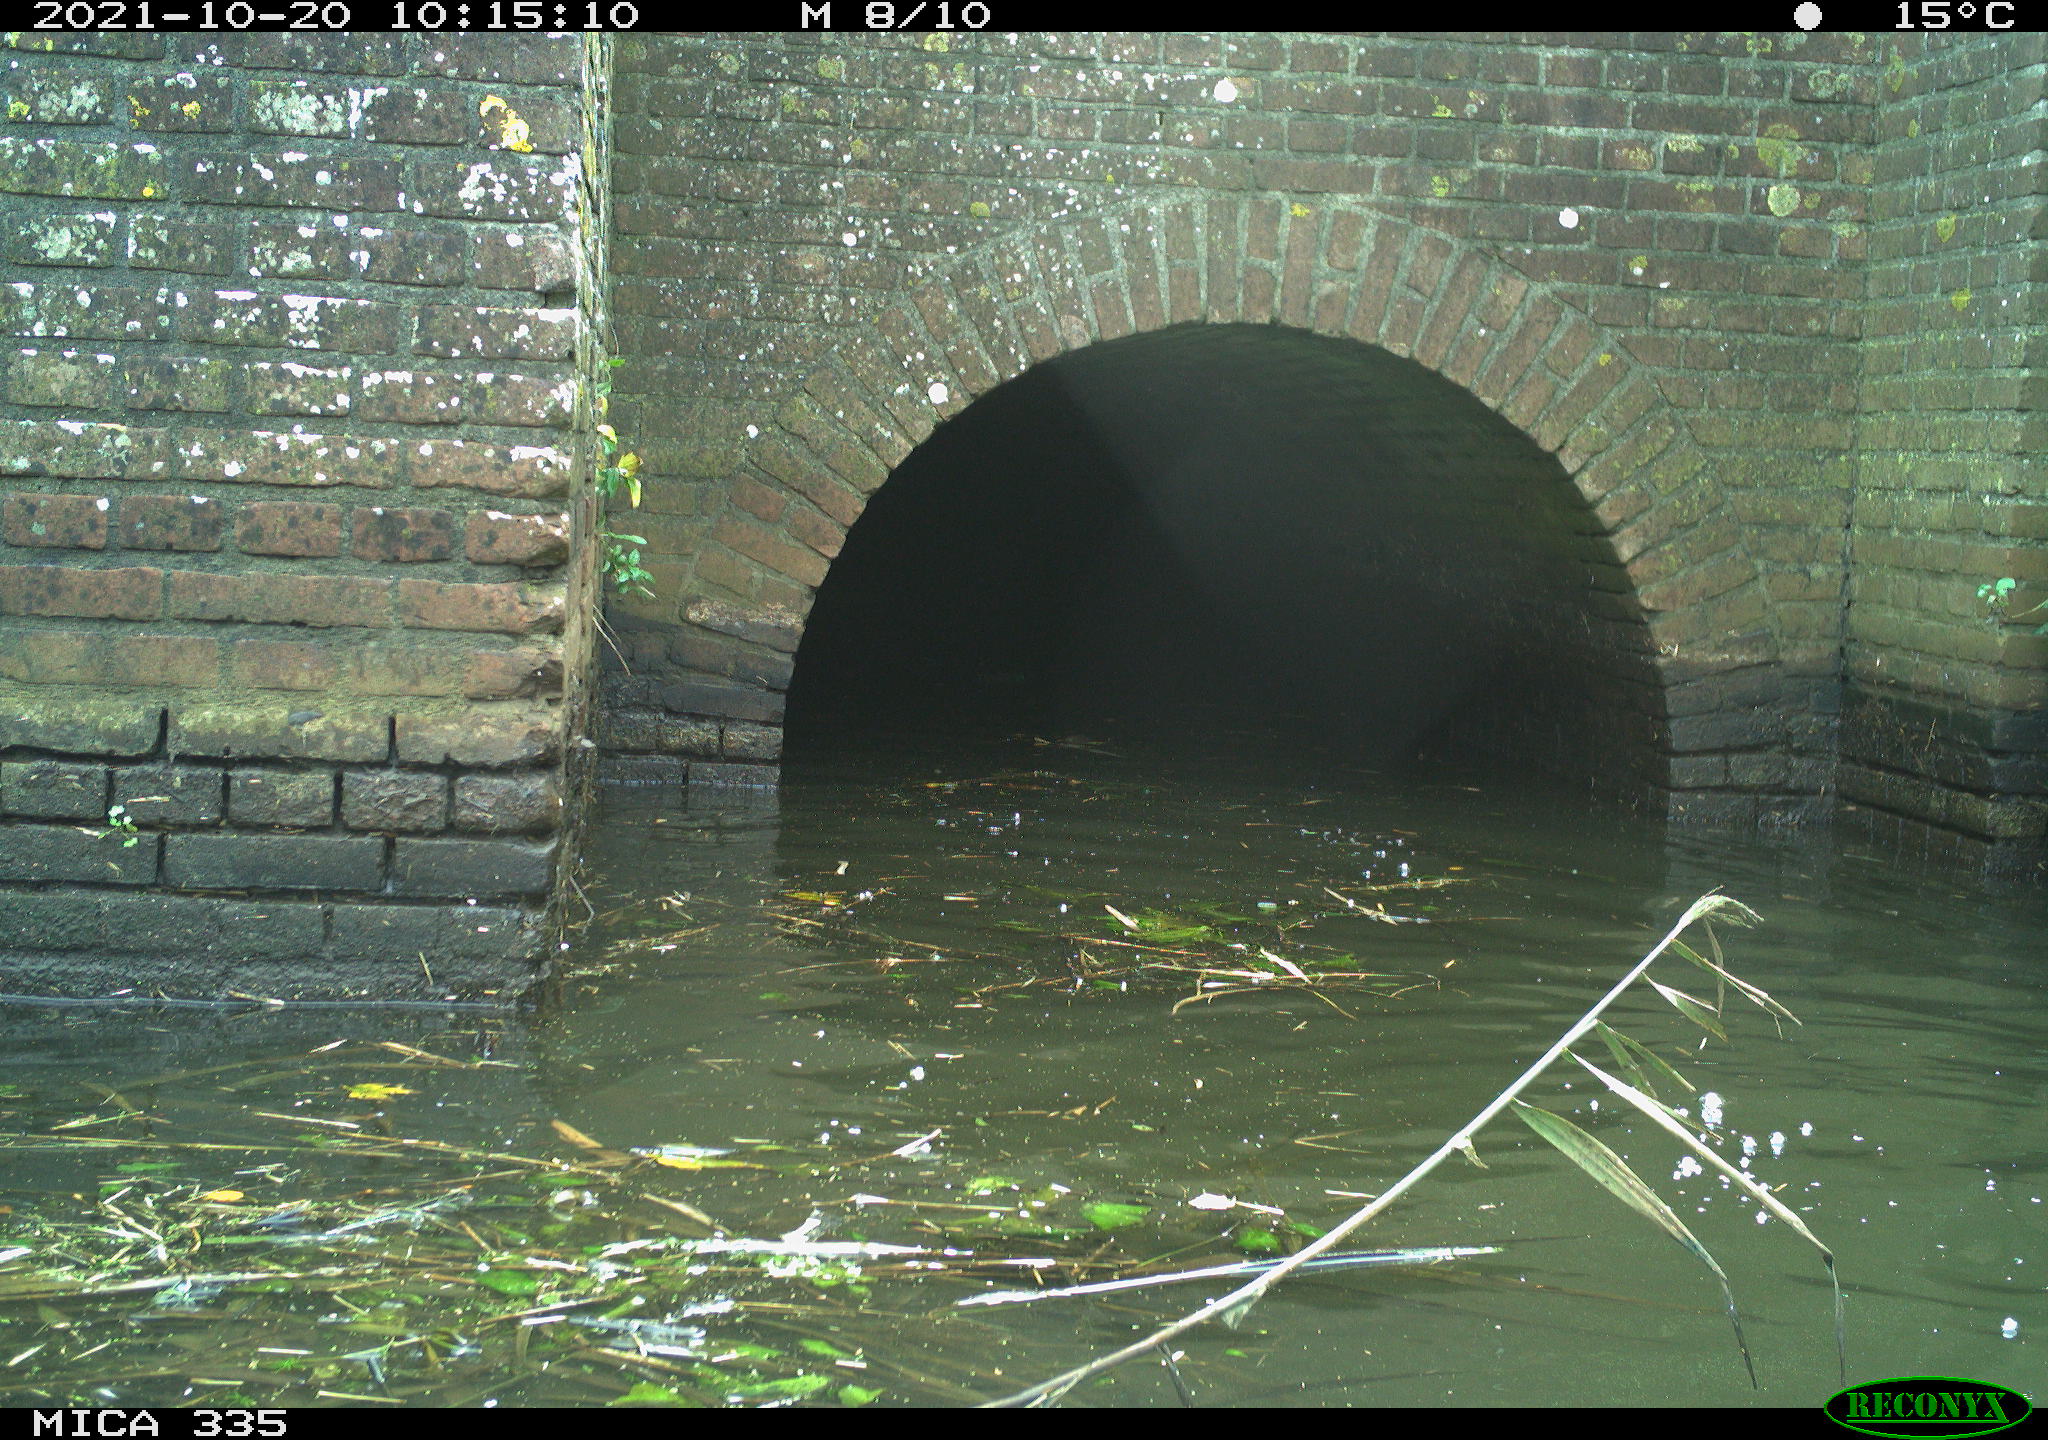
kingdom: Animalia
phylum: Chordata
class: Aves
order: Gruiformes
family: Rallidae
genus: Fulica
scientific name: Fulica atra
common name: Eurasian coot
